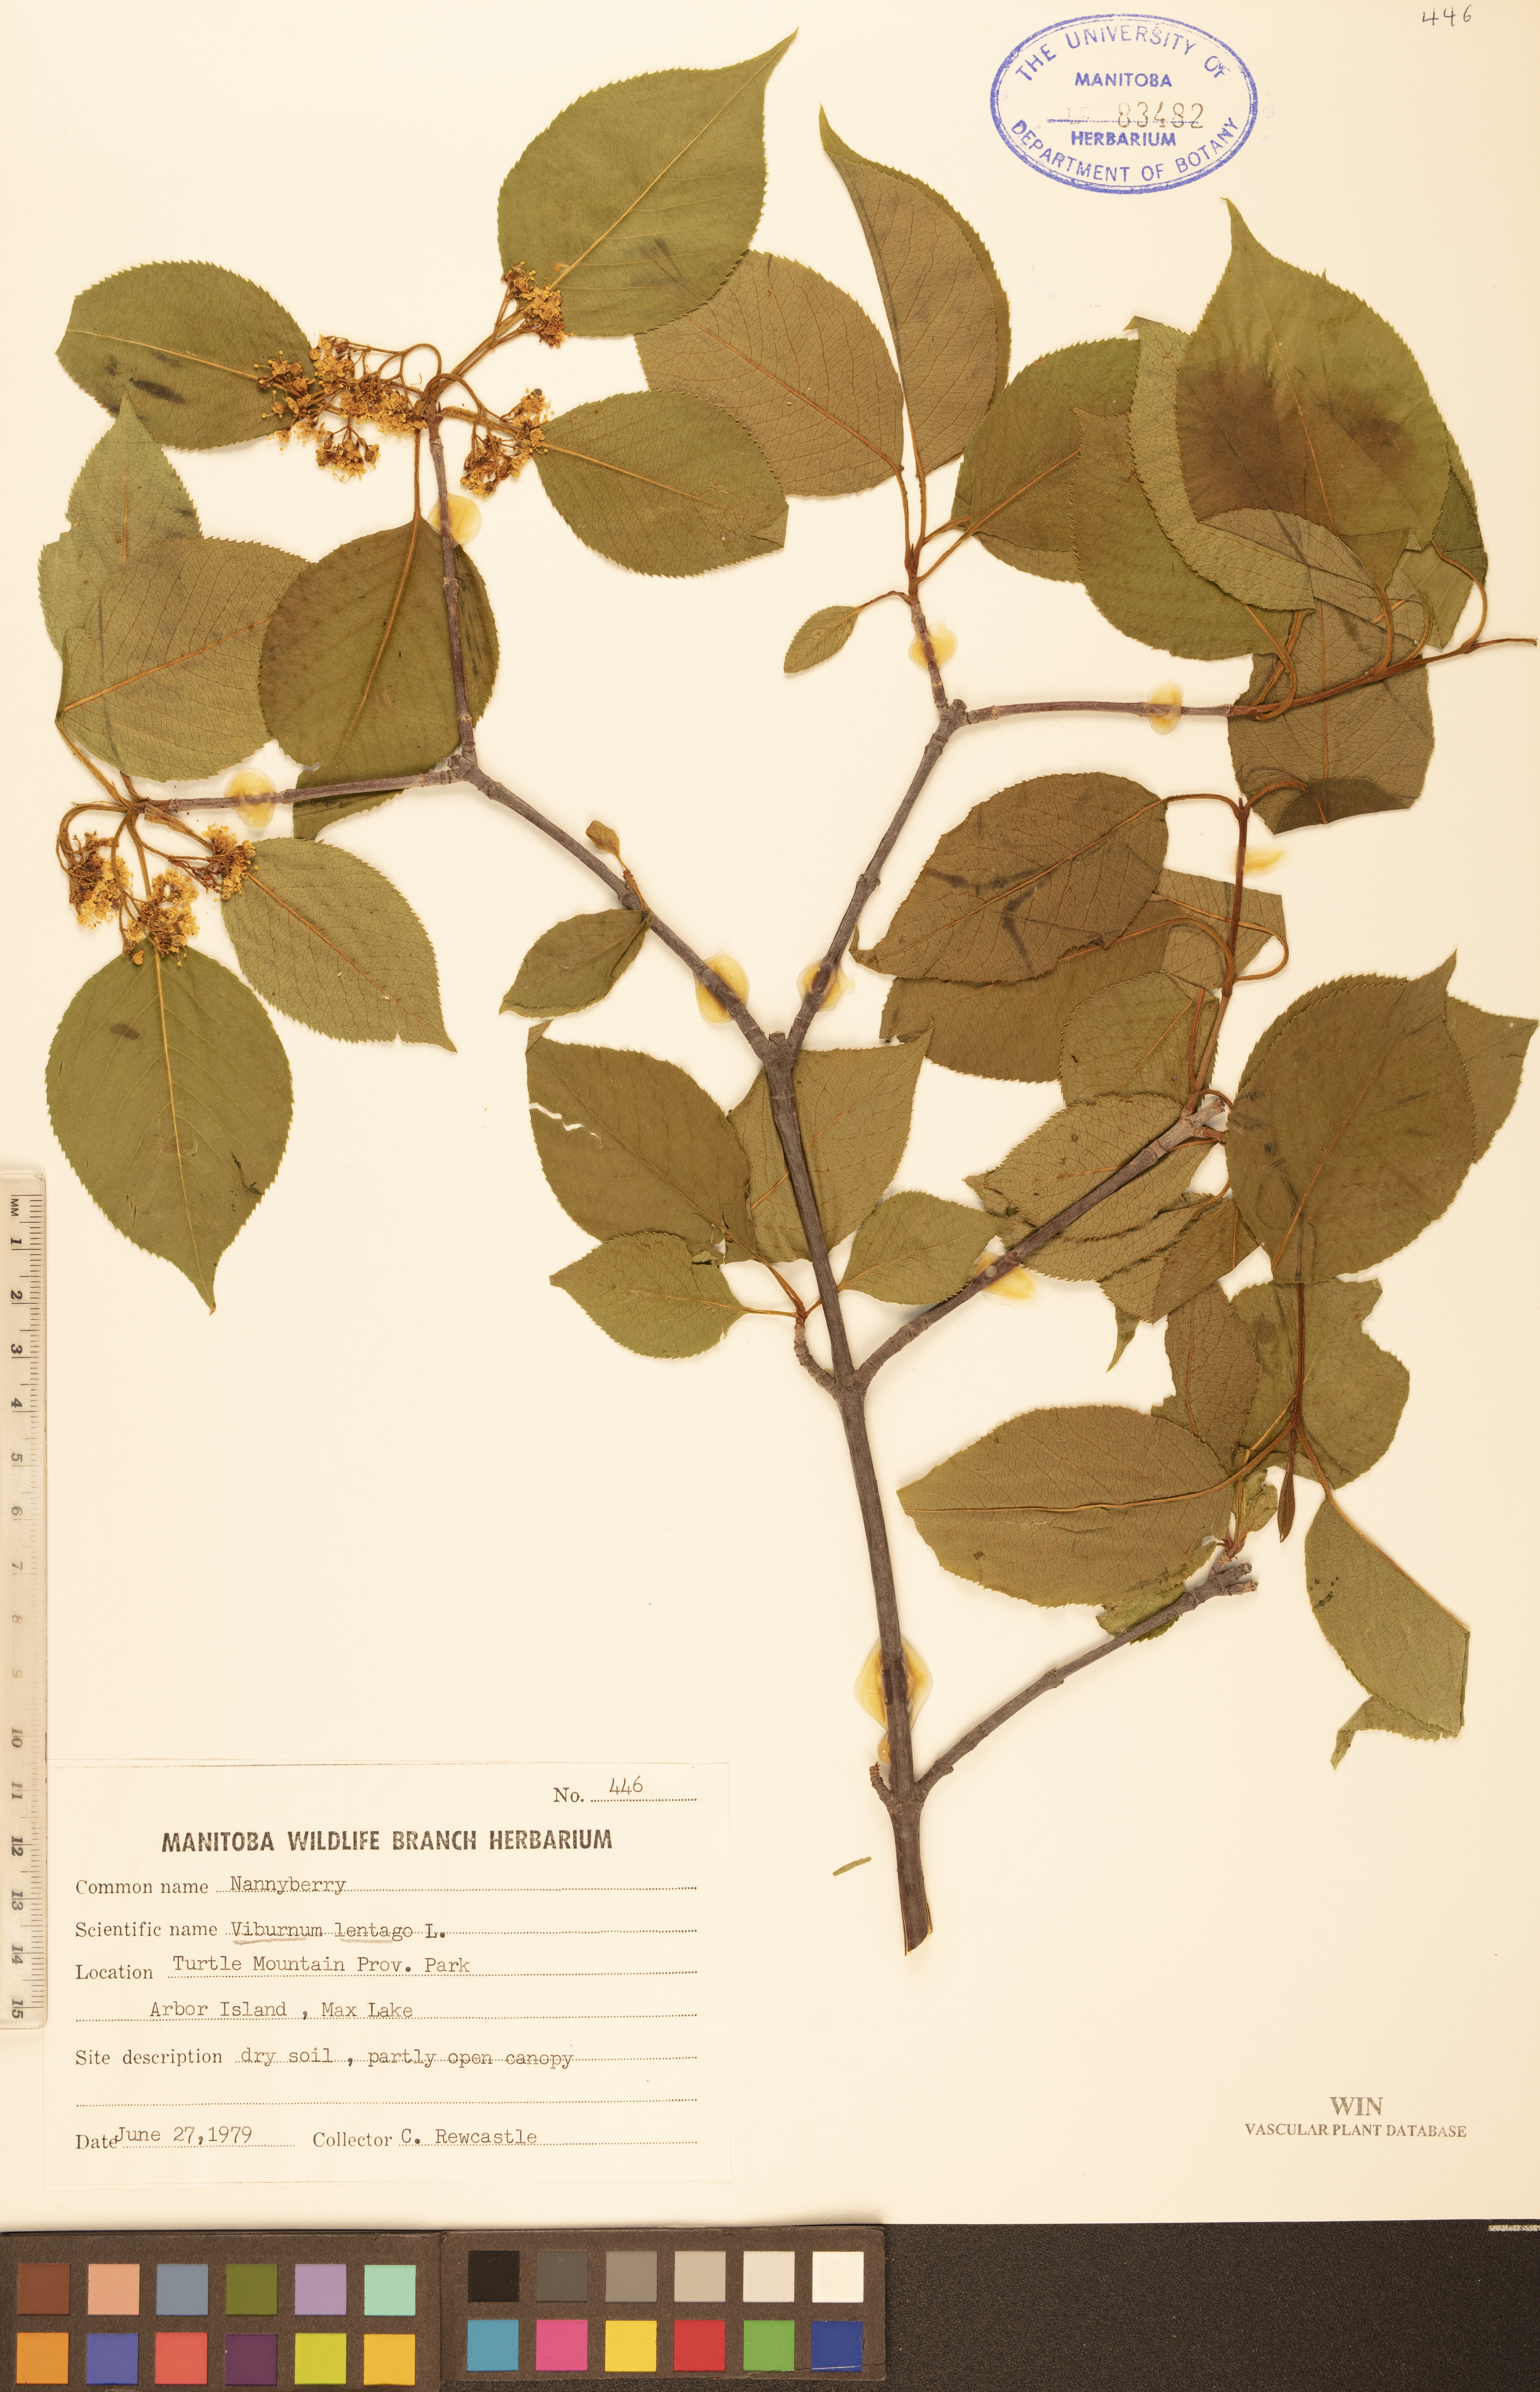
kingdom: Plantae
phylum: Tracheophyta
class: Magnoliopsida
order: Dipsacales
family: Viburnaceae
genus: Viburnum
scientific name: Viburnum lentago
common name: Black haw
